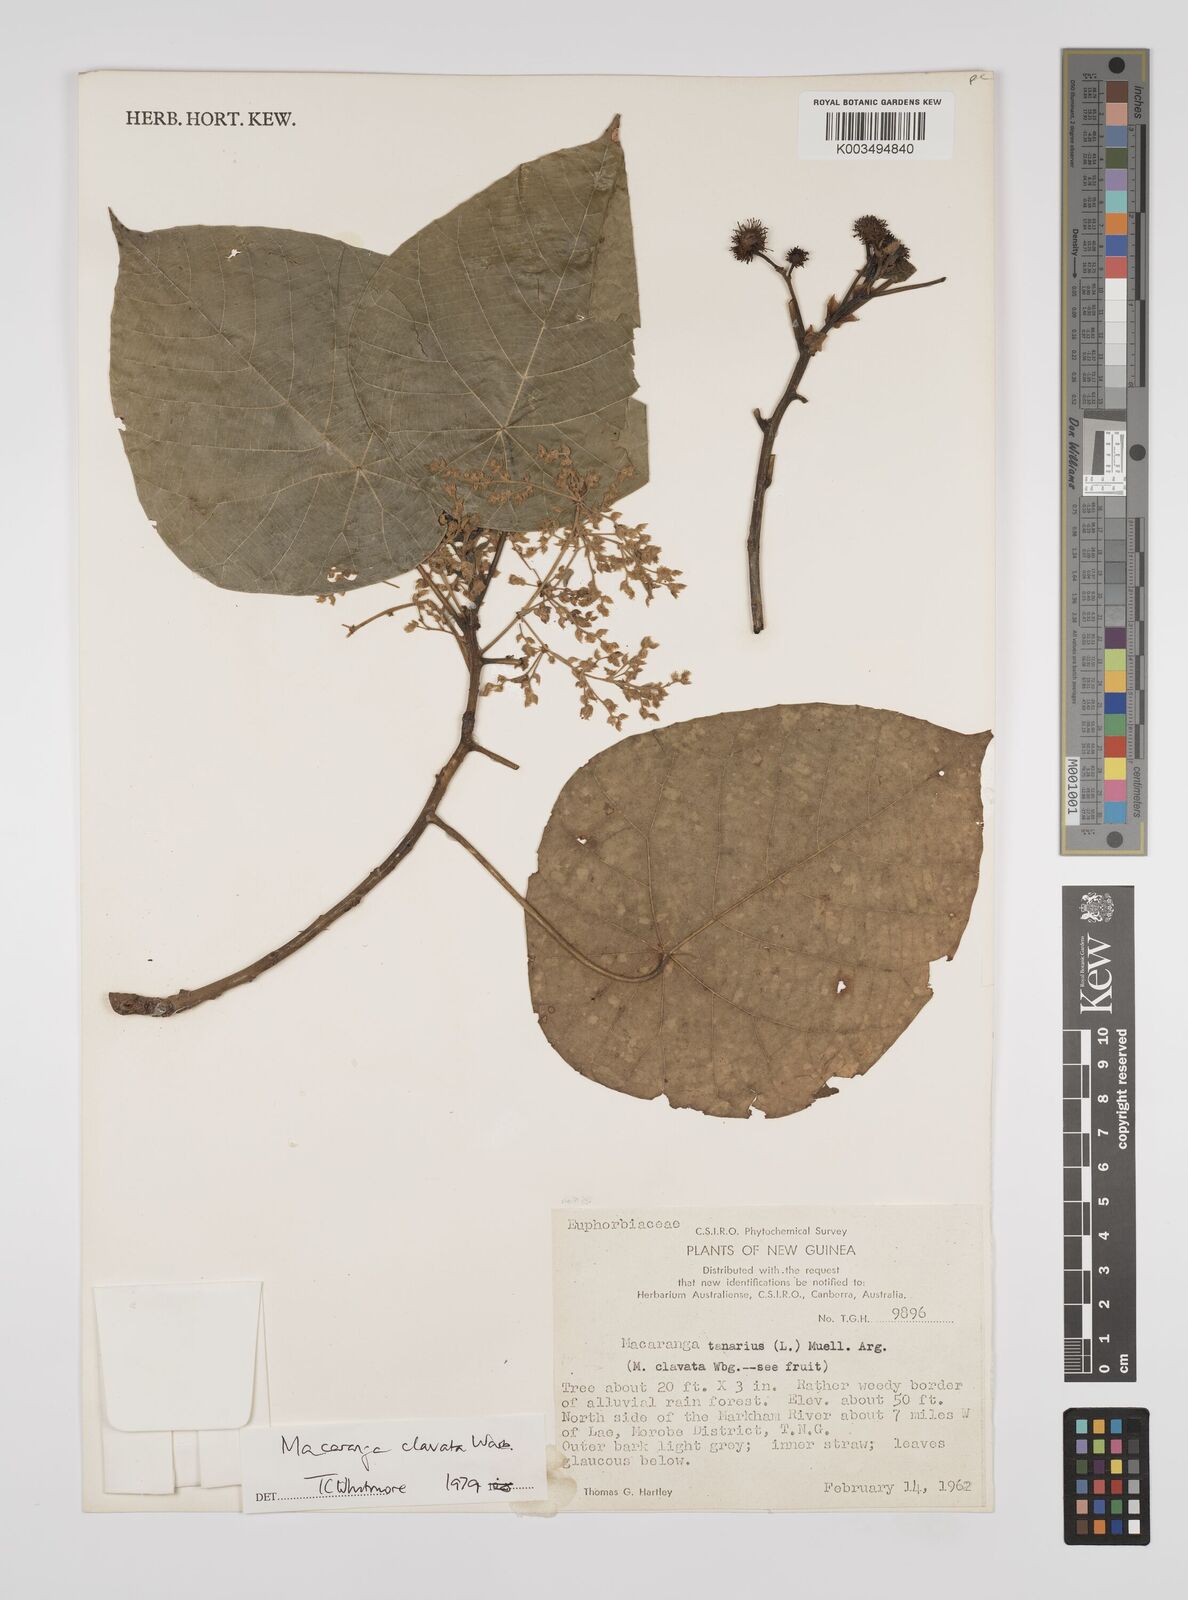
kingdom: Plantae
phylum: Tracheophyta
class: Magnoliopsida
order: Malpighiales
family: Euphorbiaceae
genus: Macaranga
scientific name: Macaranga clavata
